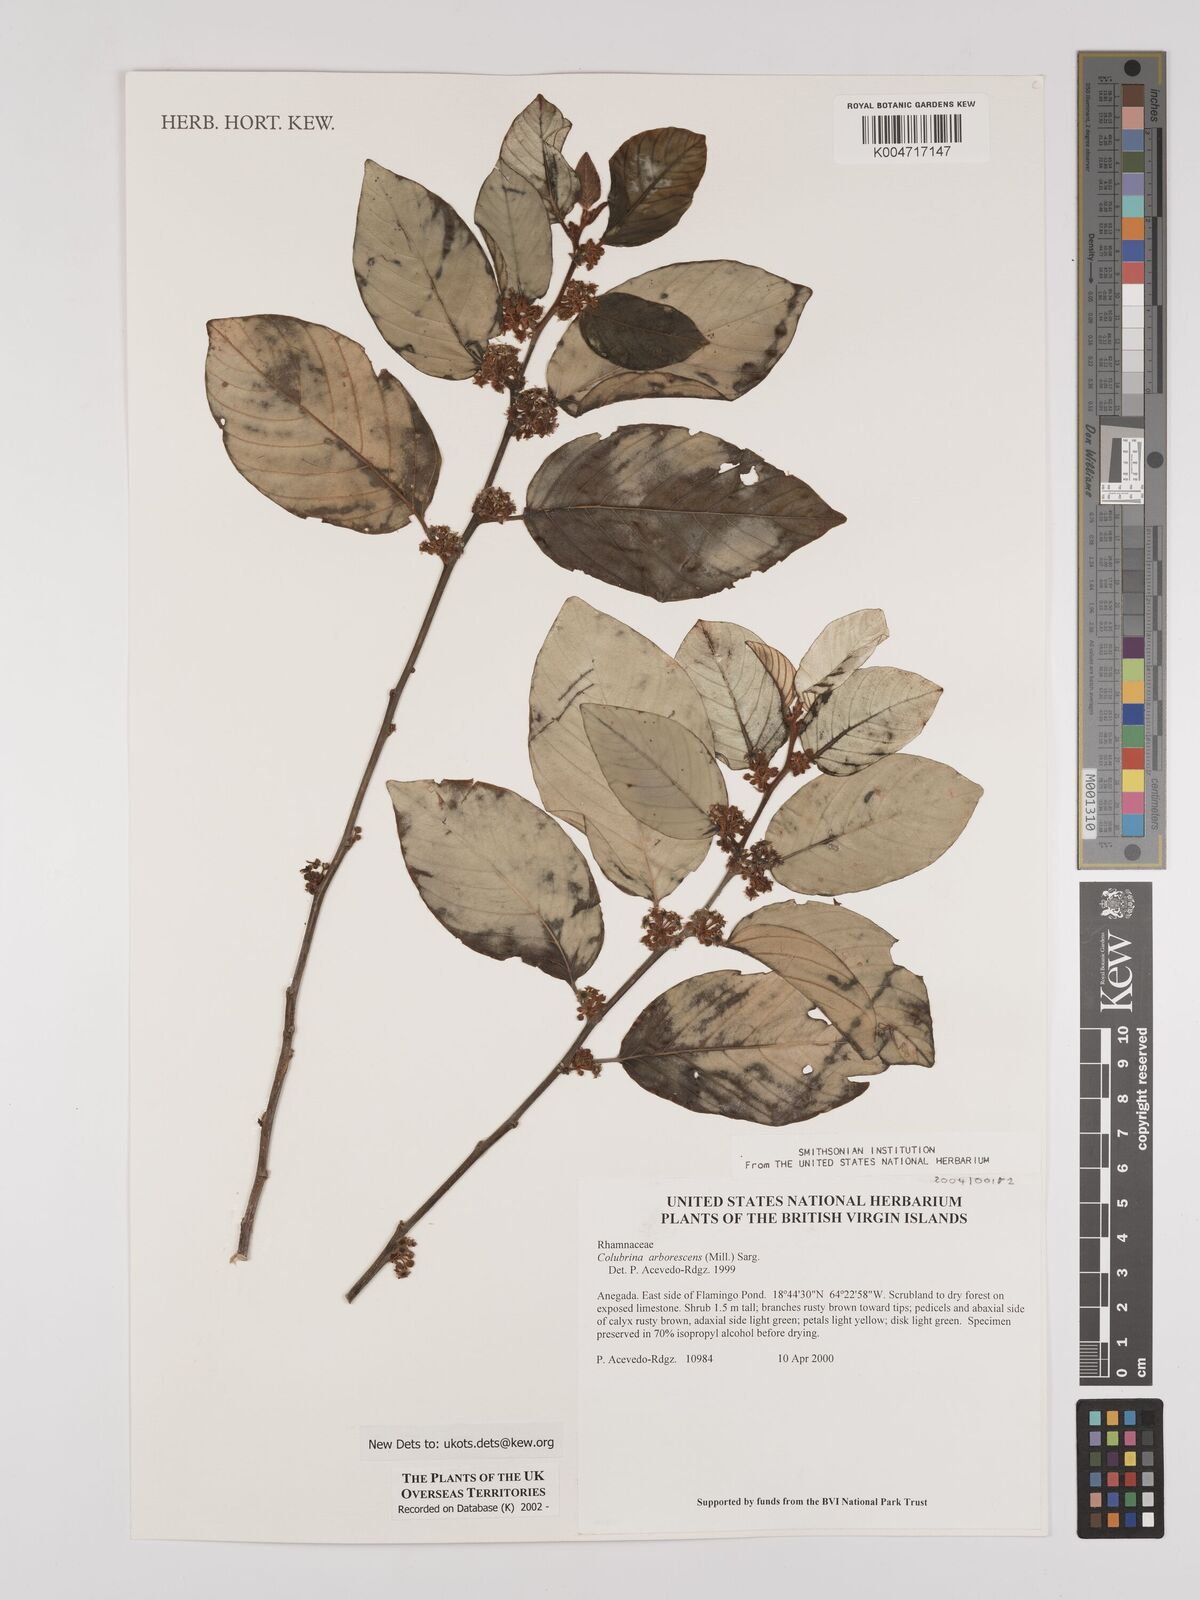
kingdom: Plantae
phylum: Tracheophyta
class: Magnoliopsida
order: Rosales
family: Rhamnaceae
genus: Colubrina
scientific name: Colubrina arborescens
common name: Wild coffee
